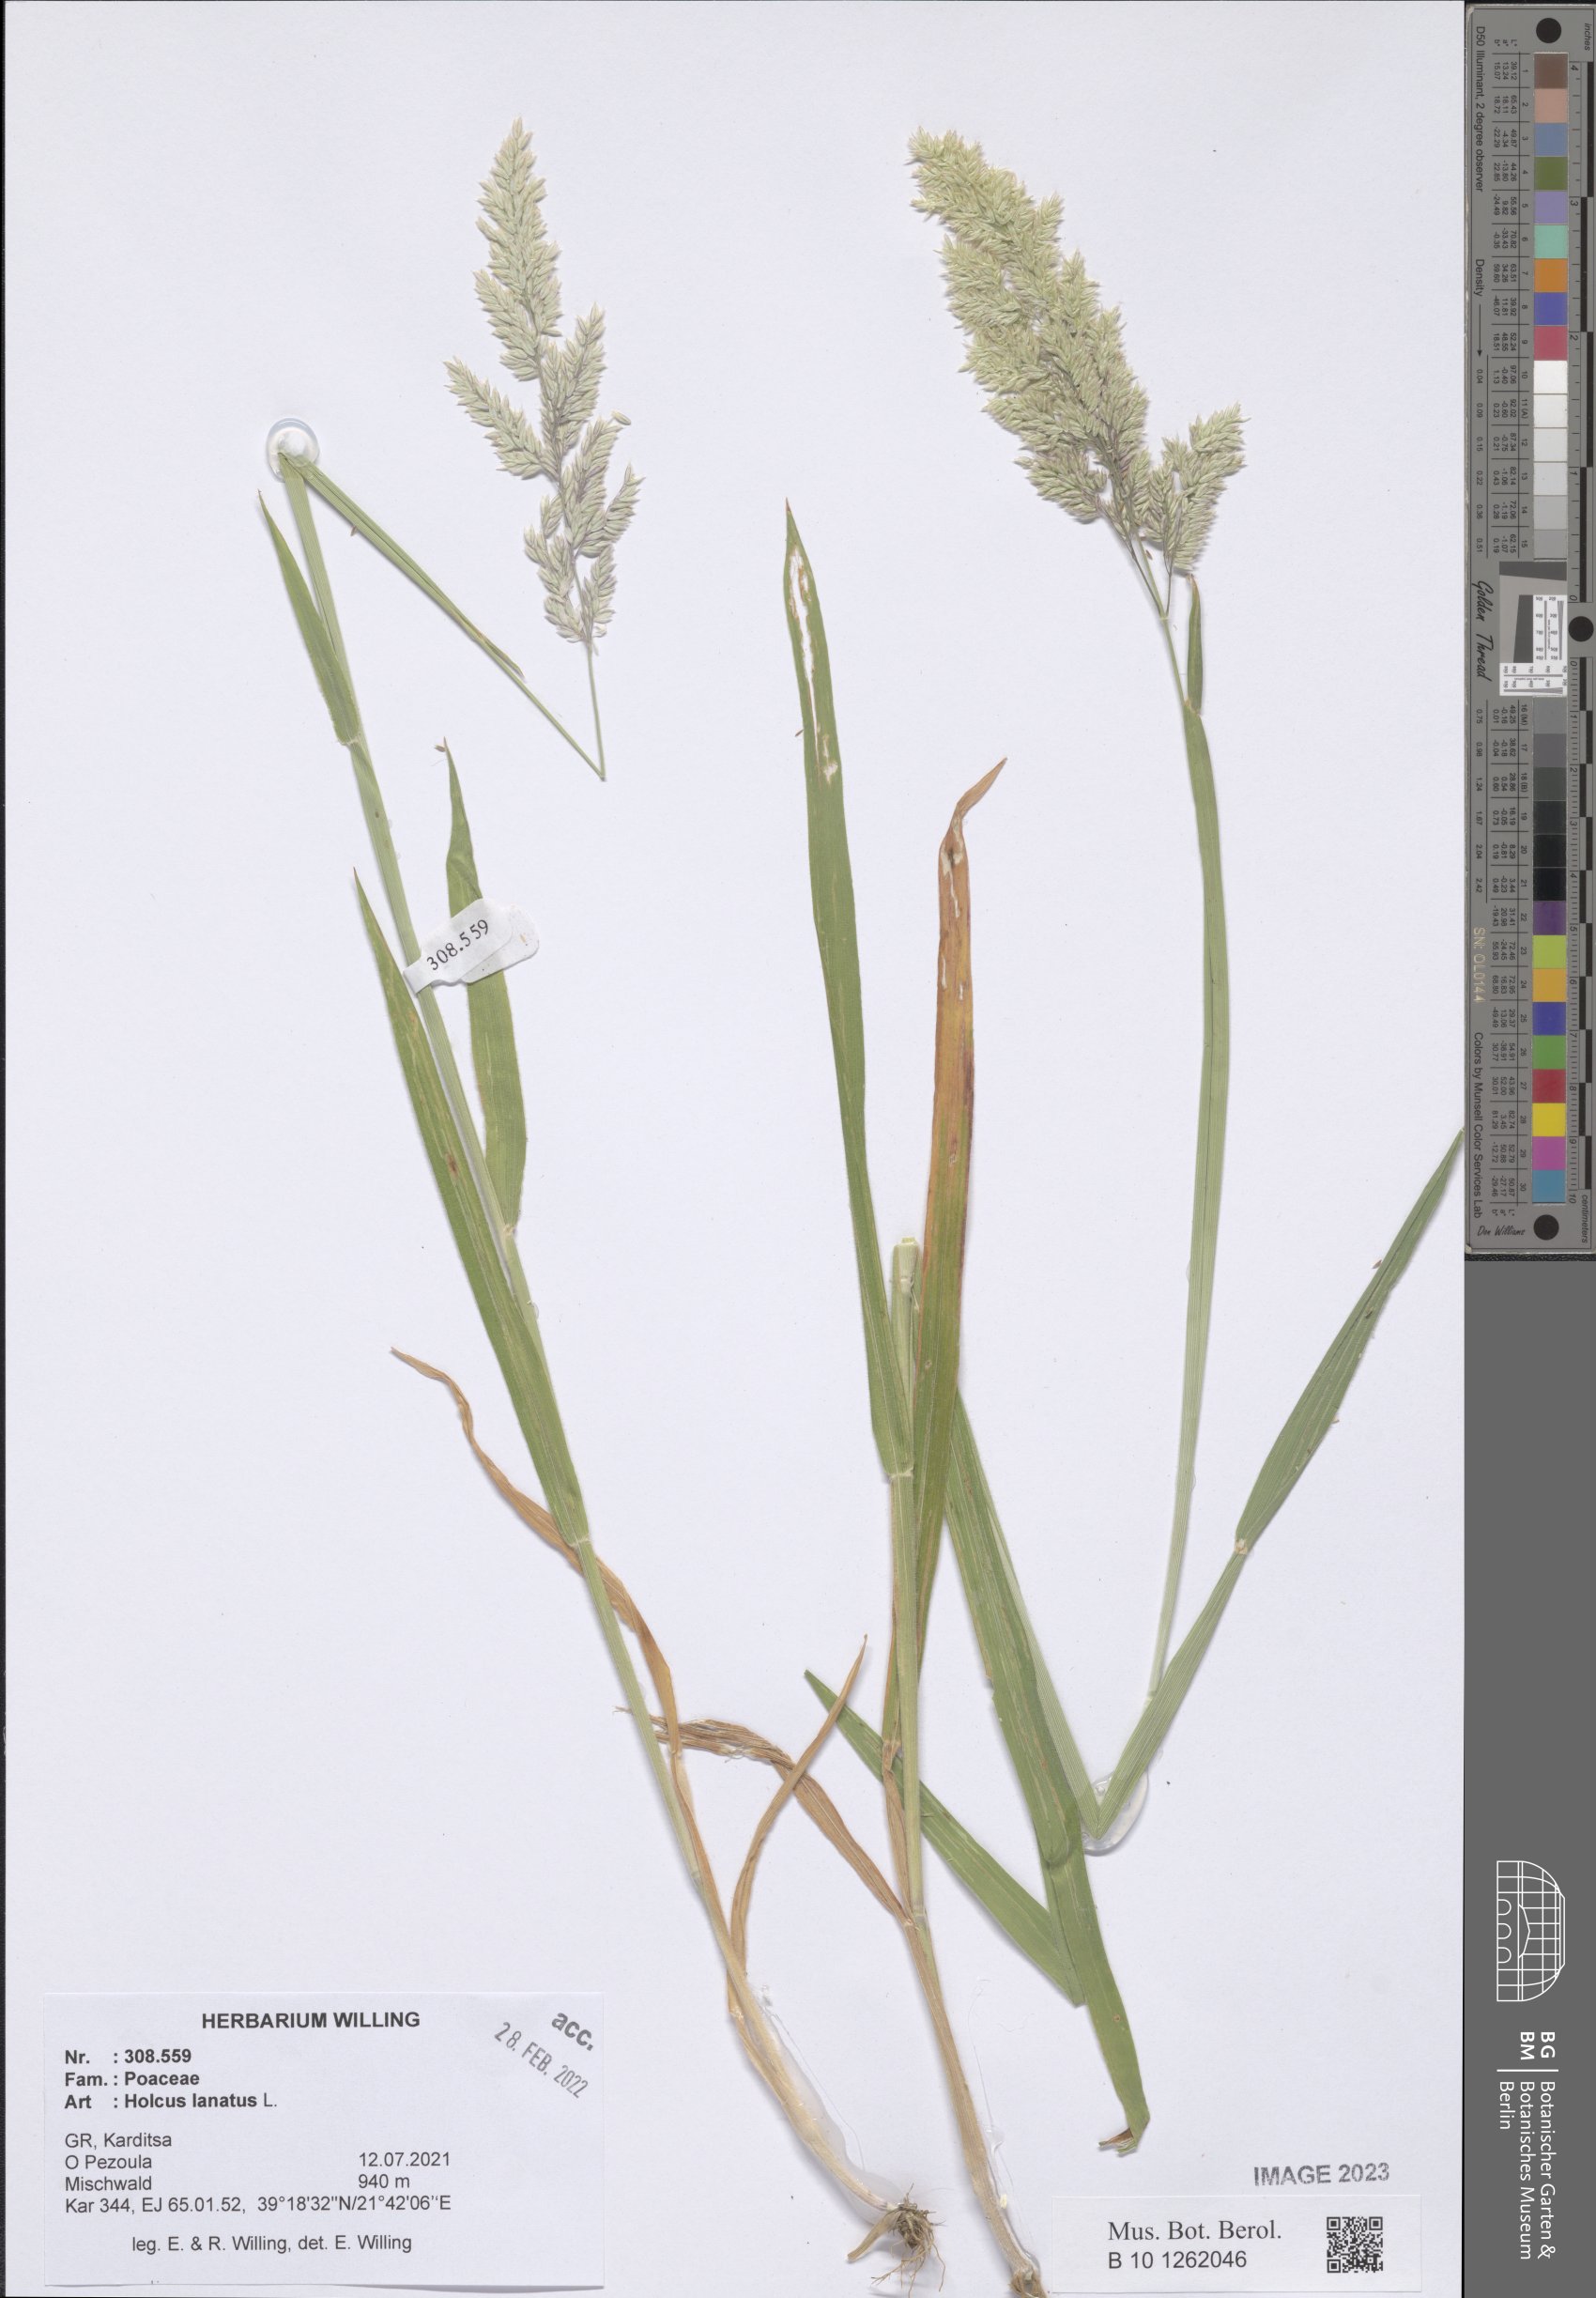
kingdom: Plantae
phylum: Tracheophyta
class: Liliopsida
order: Poales
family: Poaceae
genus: Holcus
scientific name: Holcus lanatus
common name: Yorkshire-fog
